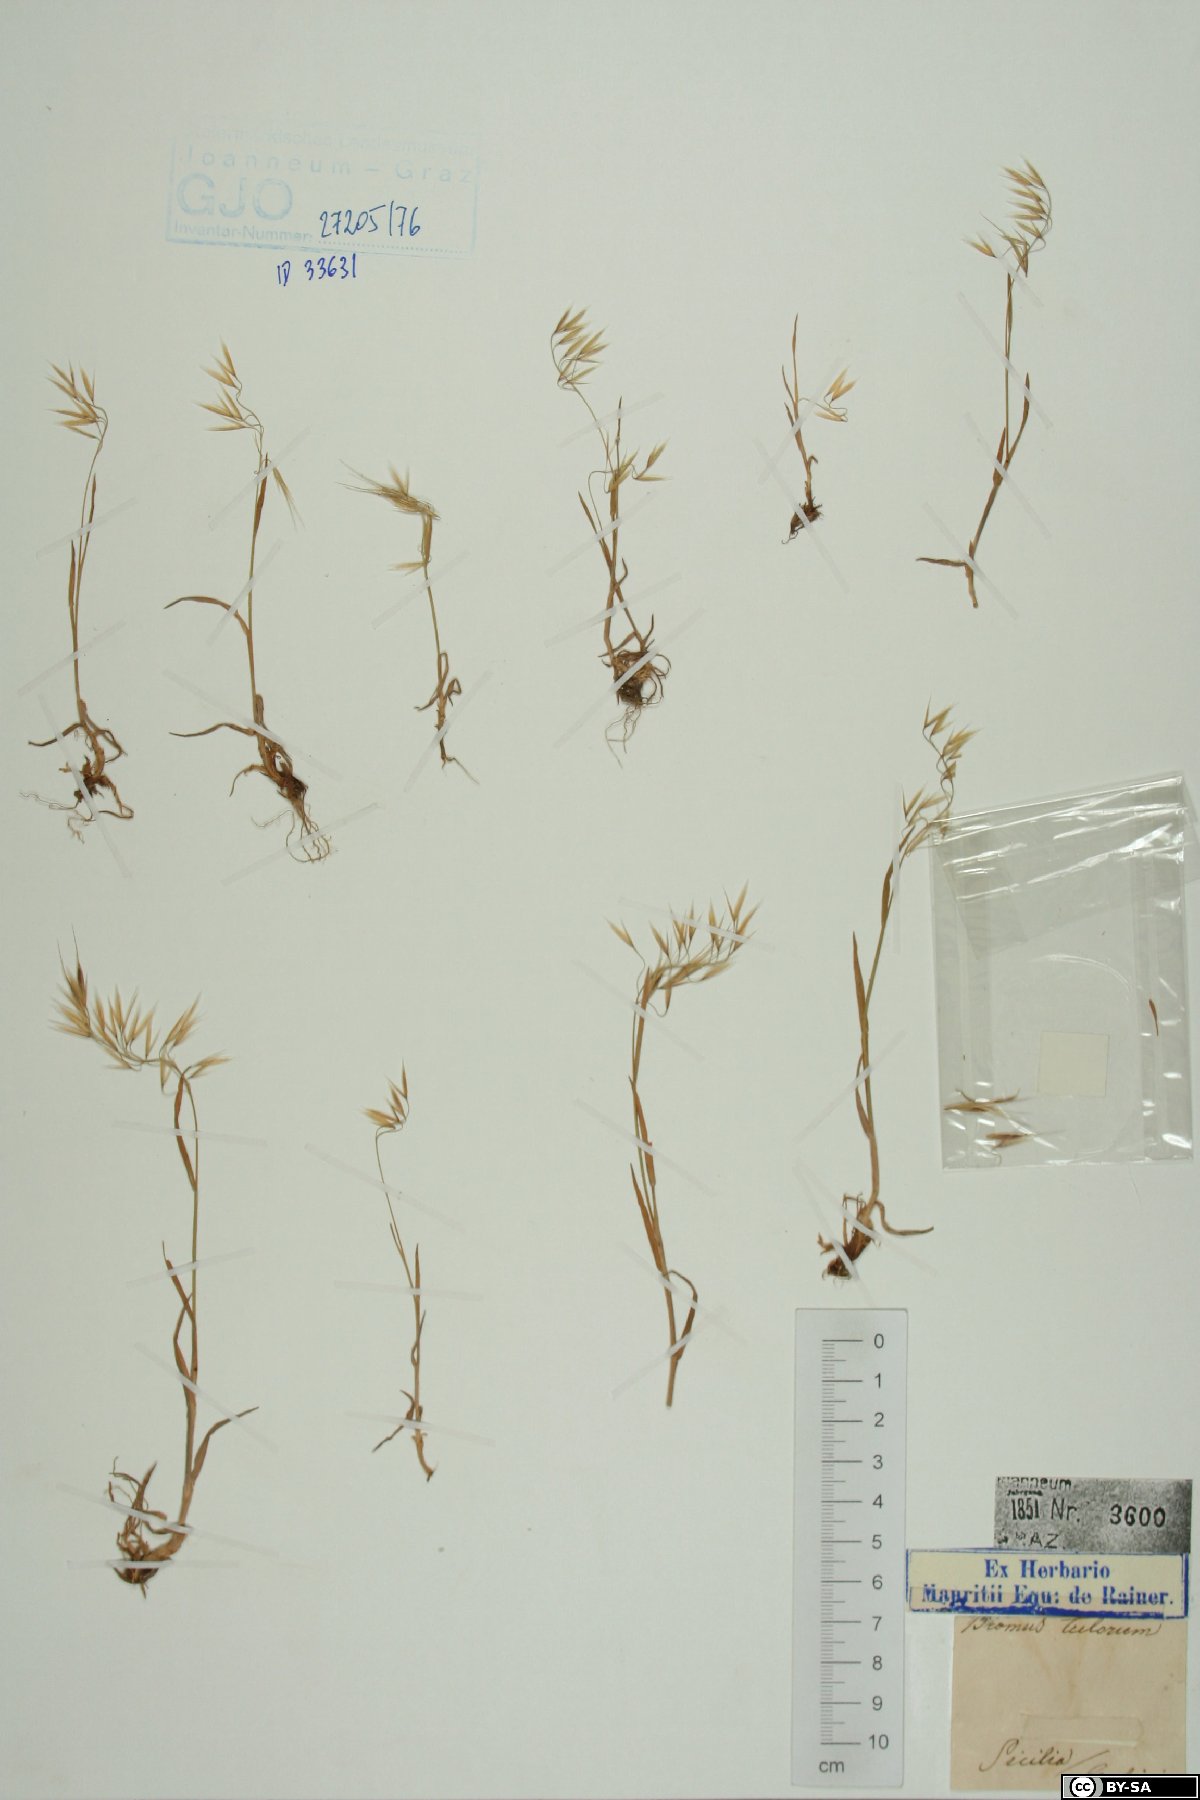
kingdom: Plantae
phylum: Tracheophyta
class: Liliopsida
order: Poales
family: Poaceae
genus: Bromus
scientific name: Bromus tectorum
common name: Cheatgrass
